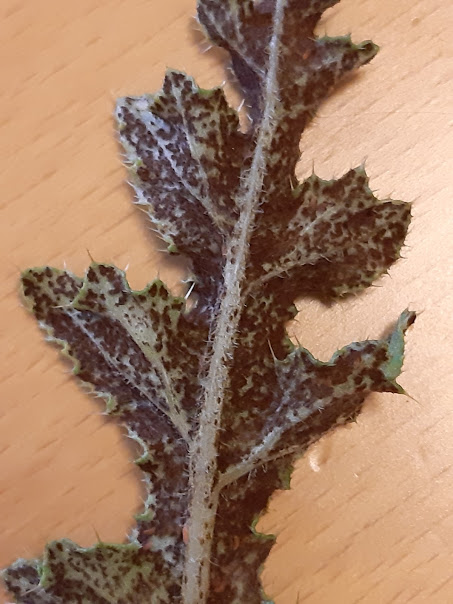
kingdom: Fungi
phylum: Basidiomycota
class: Pucciniomycetes
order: Pucciniales
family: Pucciniaceae
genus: Puccinia
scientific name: Puccinia suaveolens
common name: tidsel-tvecellerust
